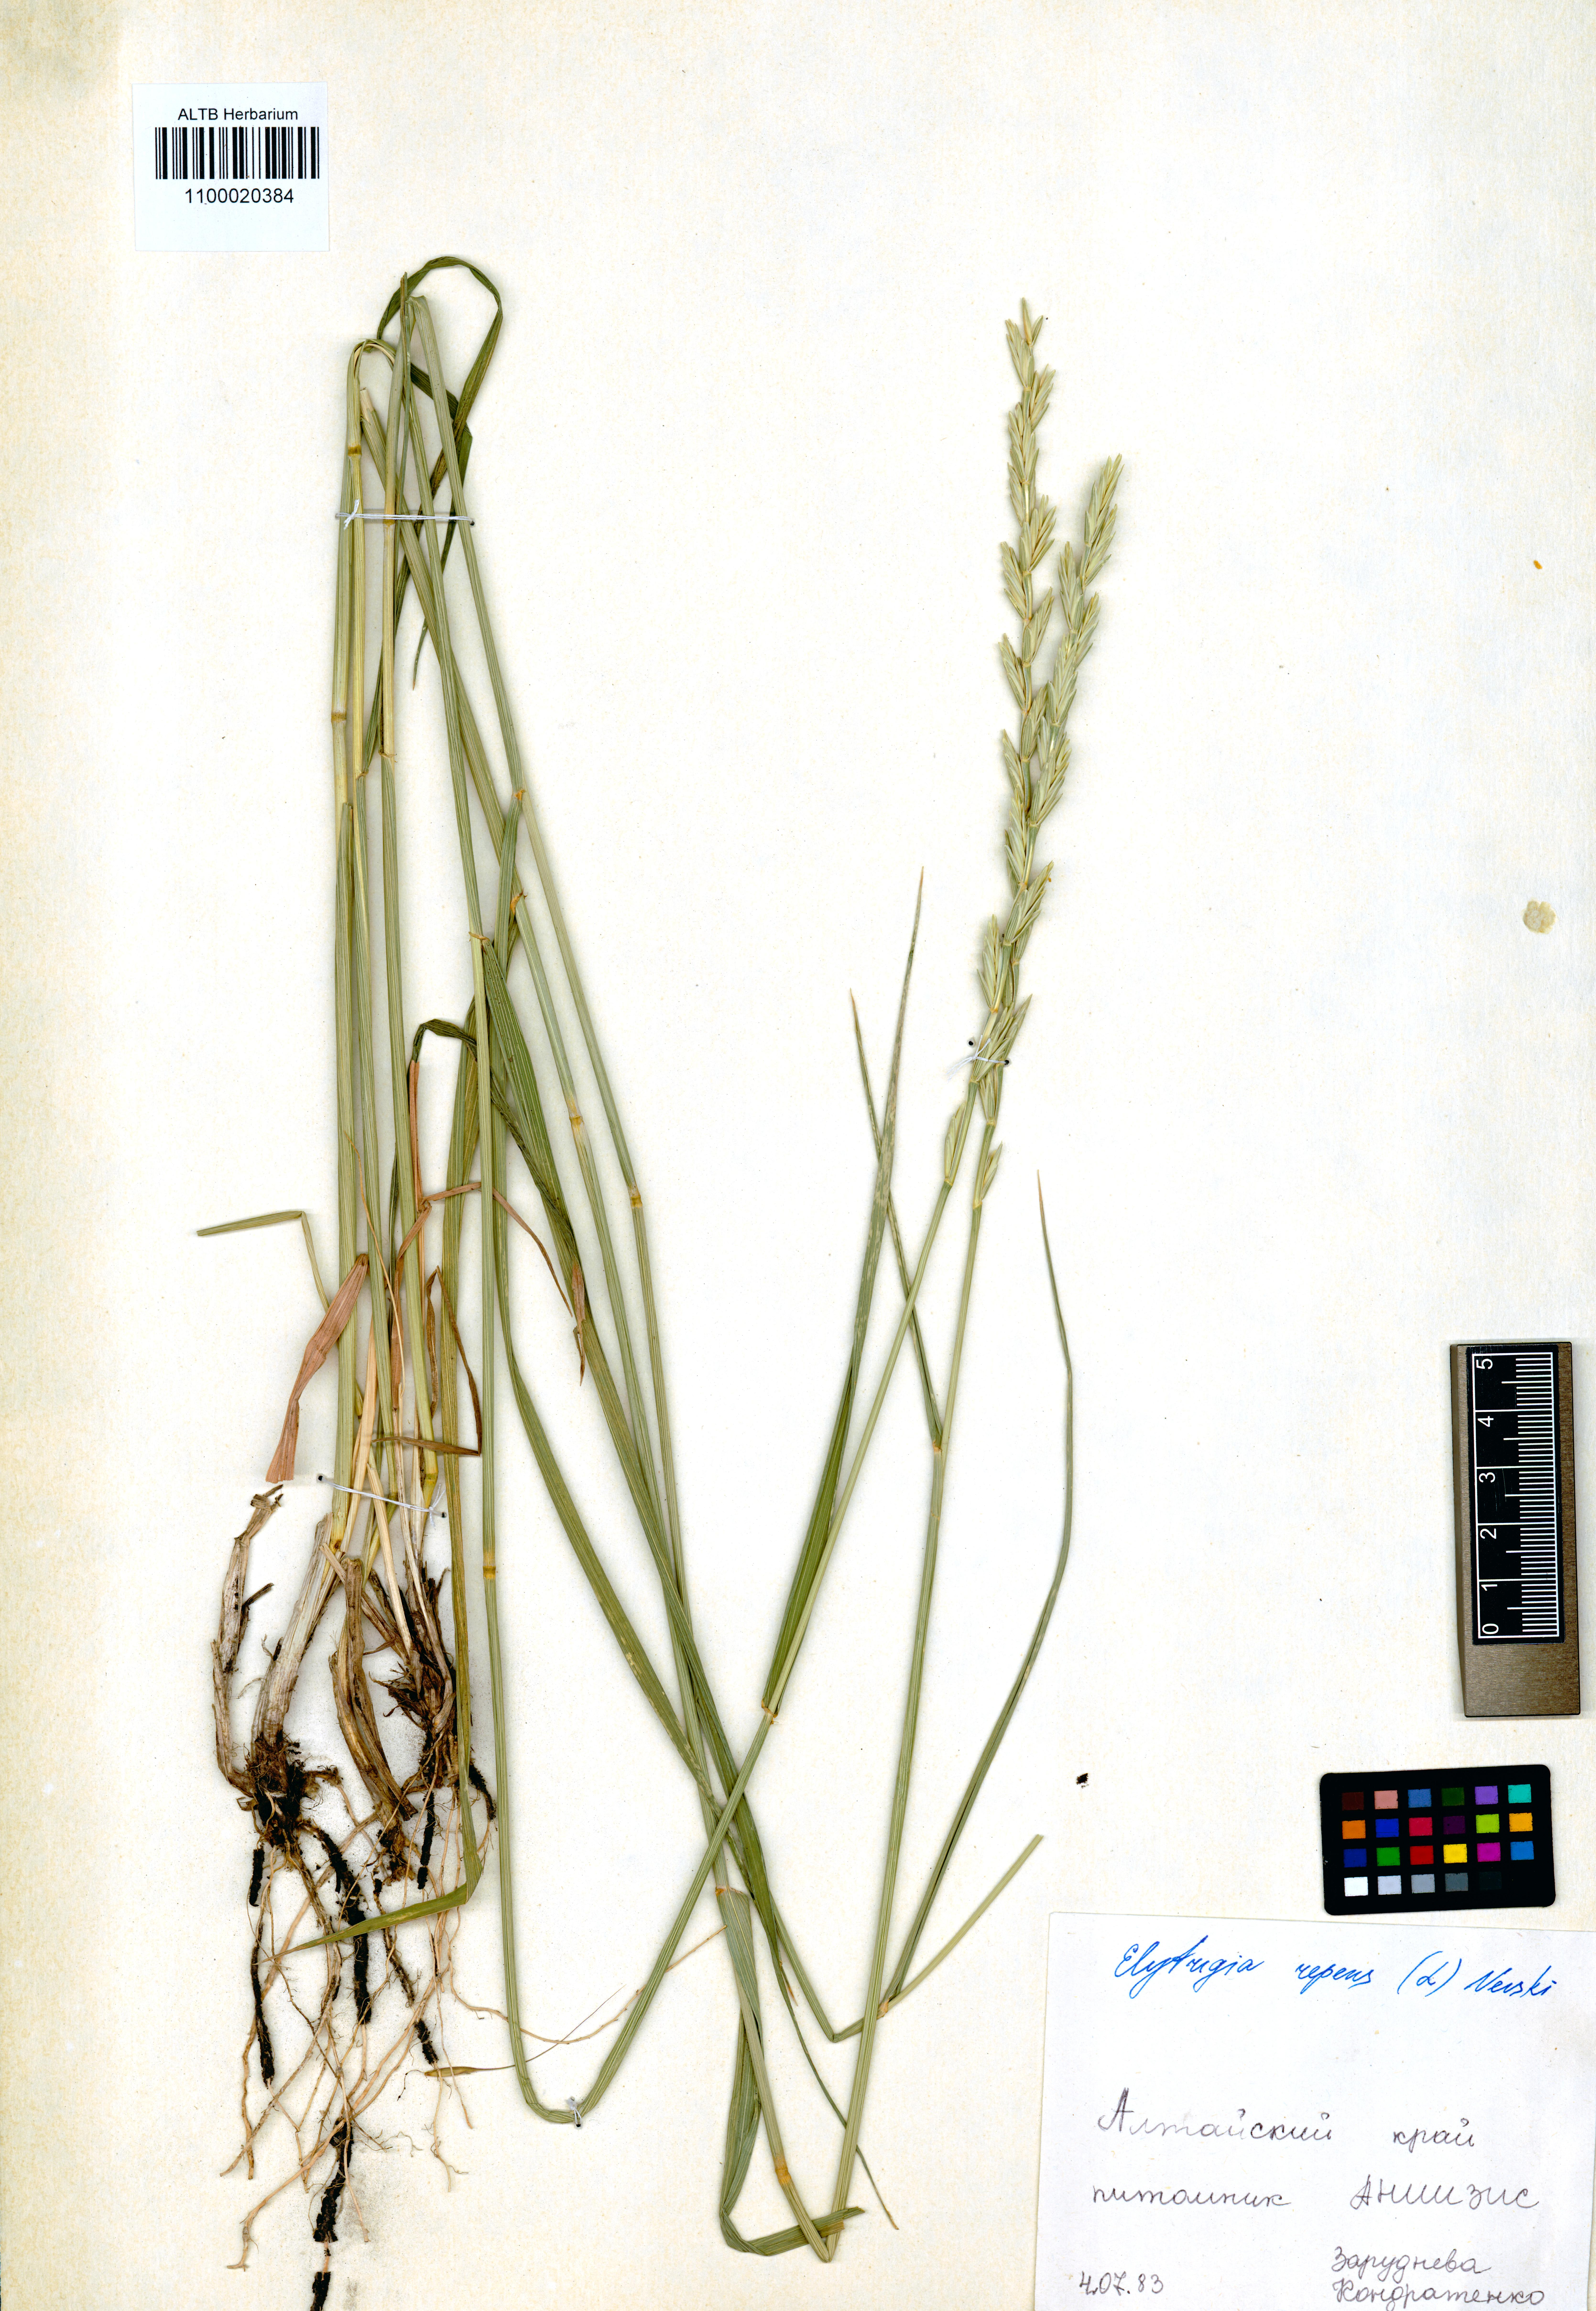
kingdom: Plantae
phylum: Tracheophyta
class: Liliopsida
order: Poales
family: Poaceae
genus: Thinopyrum
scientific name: Thinopyrum intermedium
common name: Intermediate wheatgrass
